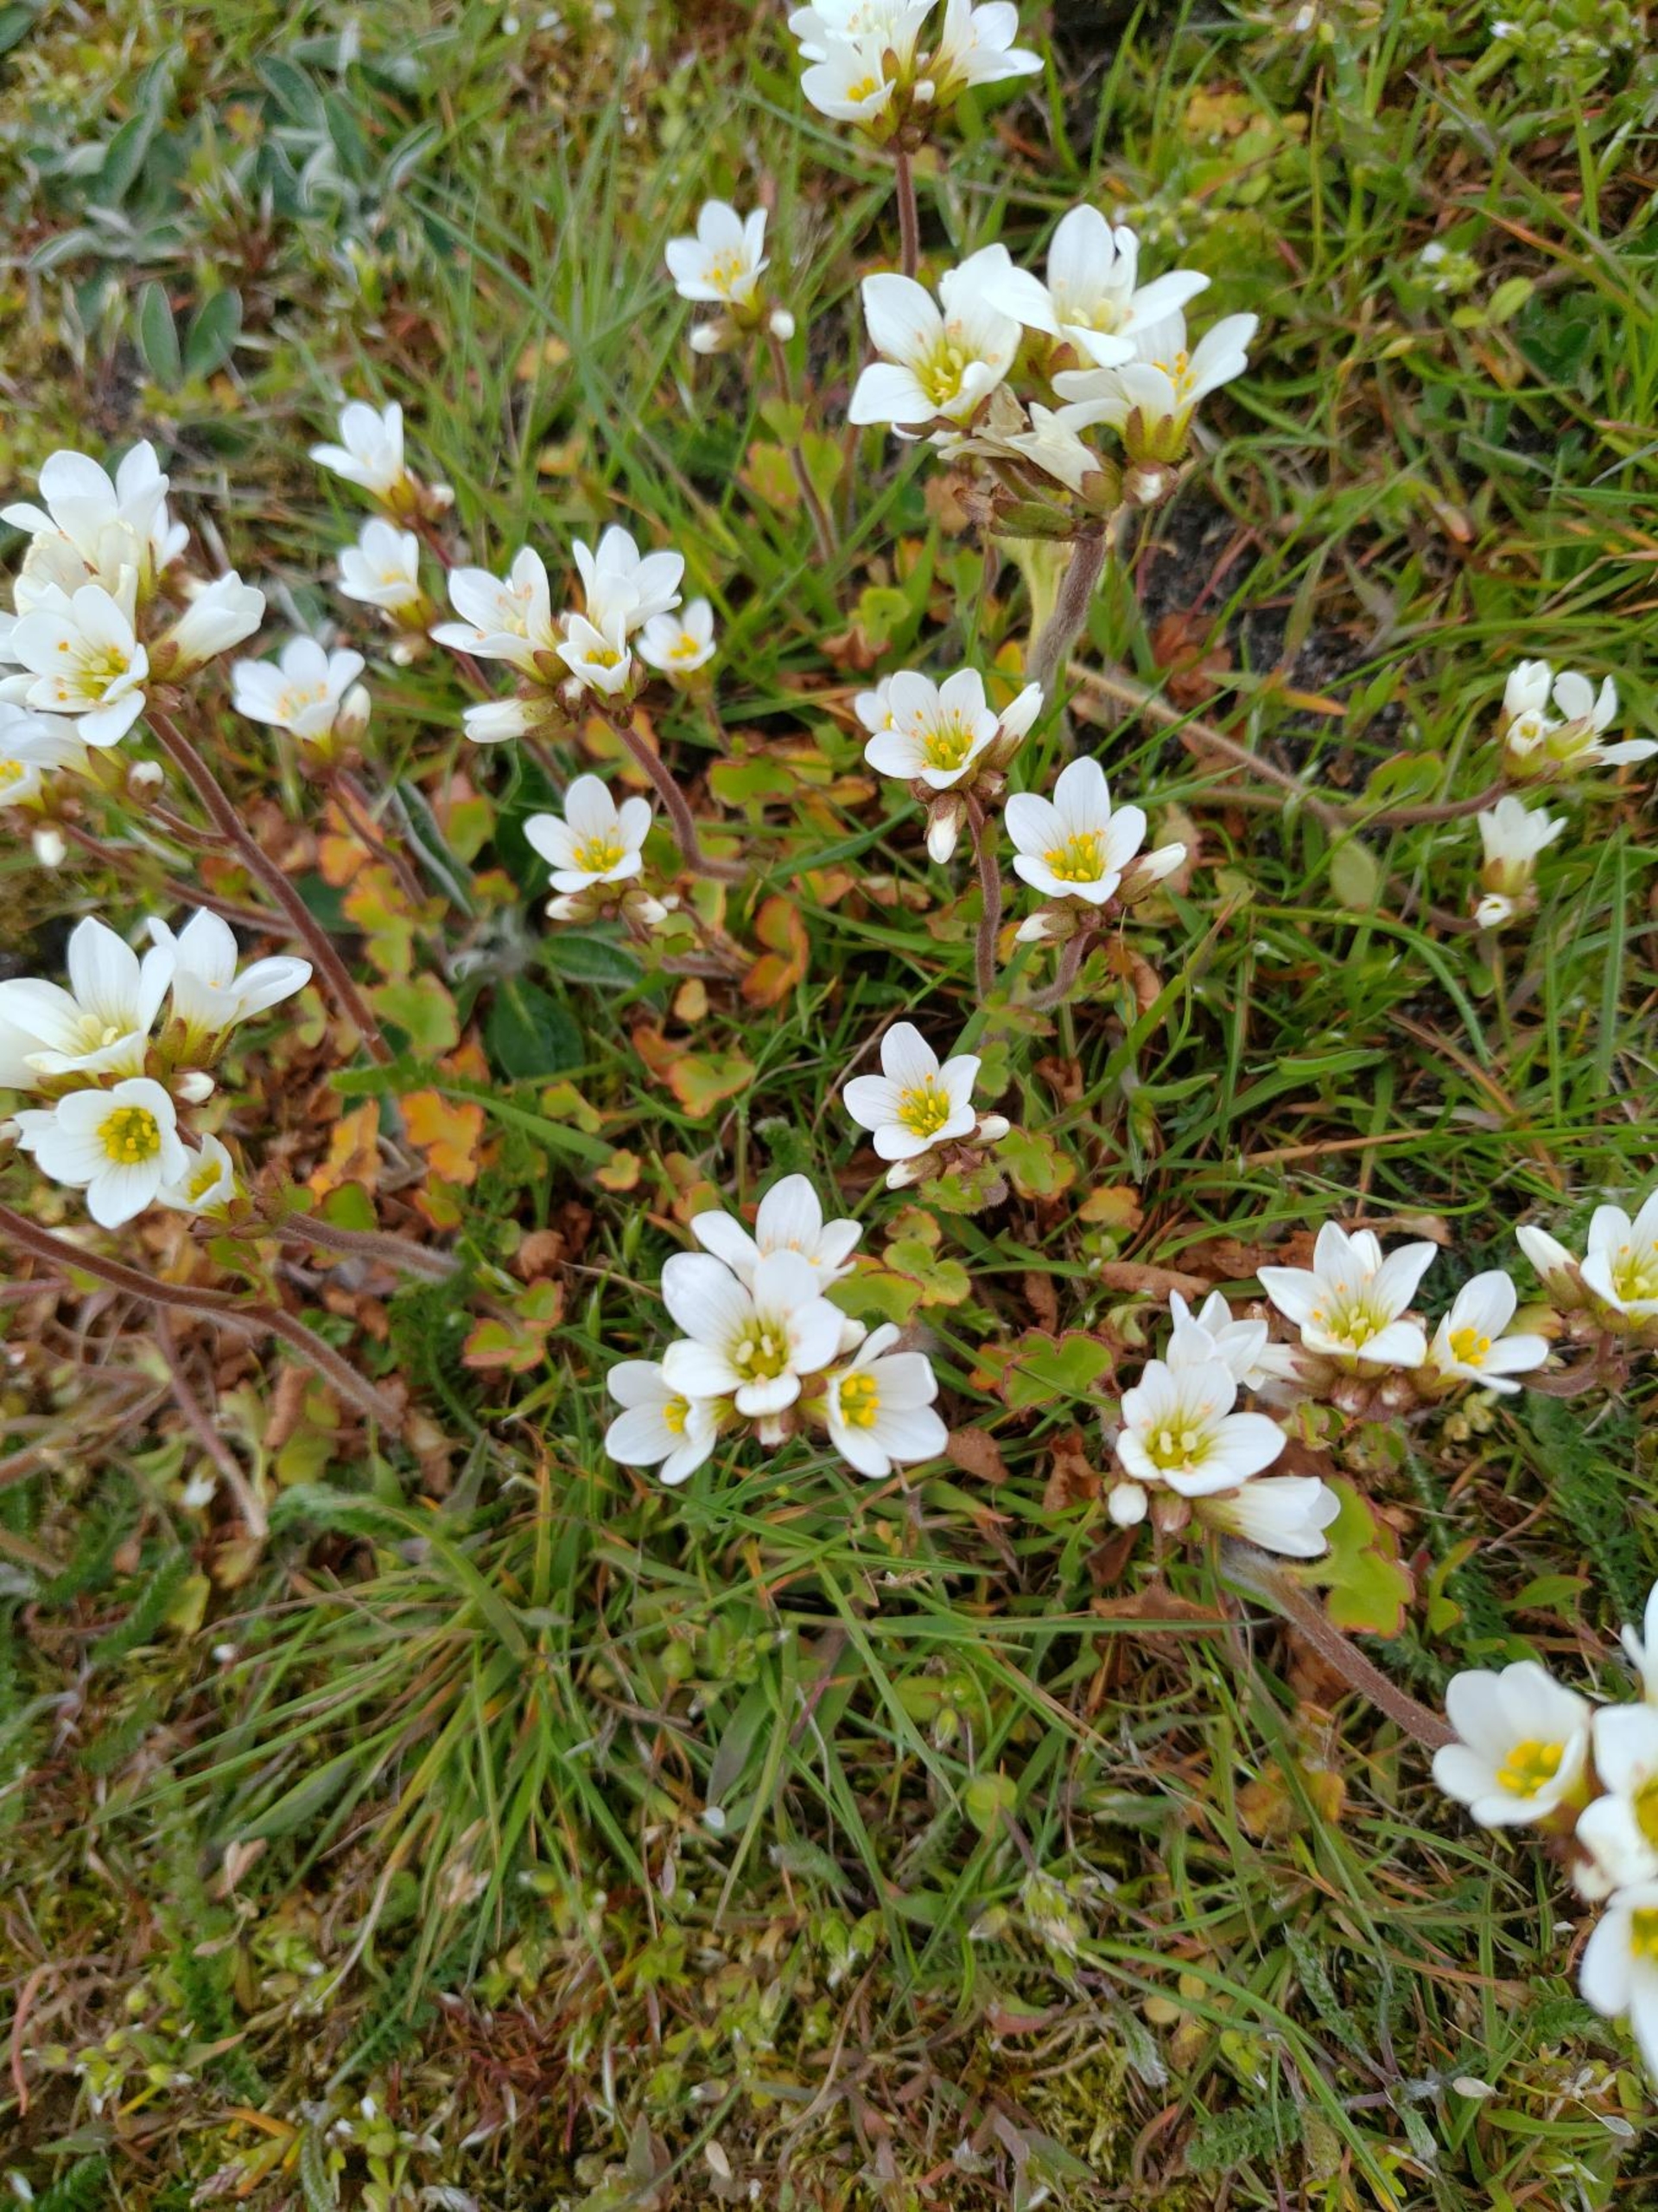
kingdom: Plantae
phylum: Tracheophyta
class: Magnoliopsida
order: Saxifragales
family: Saxifragaceae
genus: Saxifraga
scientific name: Saxifraga granulata
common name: Kornet stenbræk
